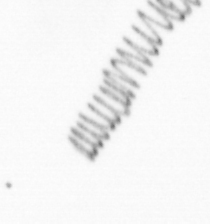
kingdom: Chromista
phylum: Ochrophyta
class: Bacillariophyceae
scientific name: Bacillariophyceae
